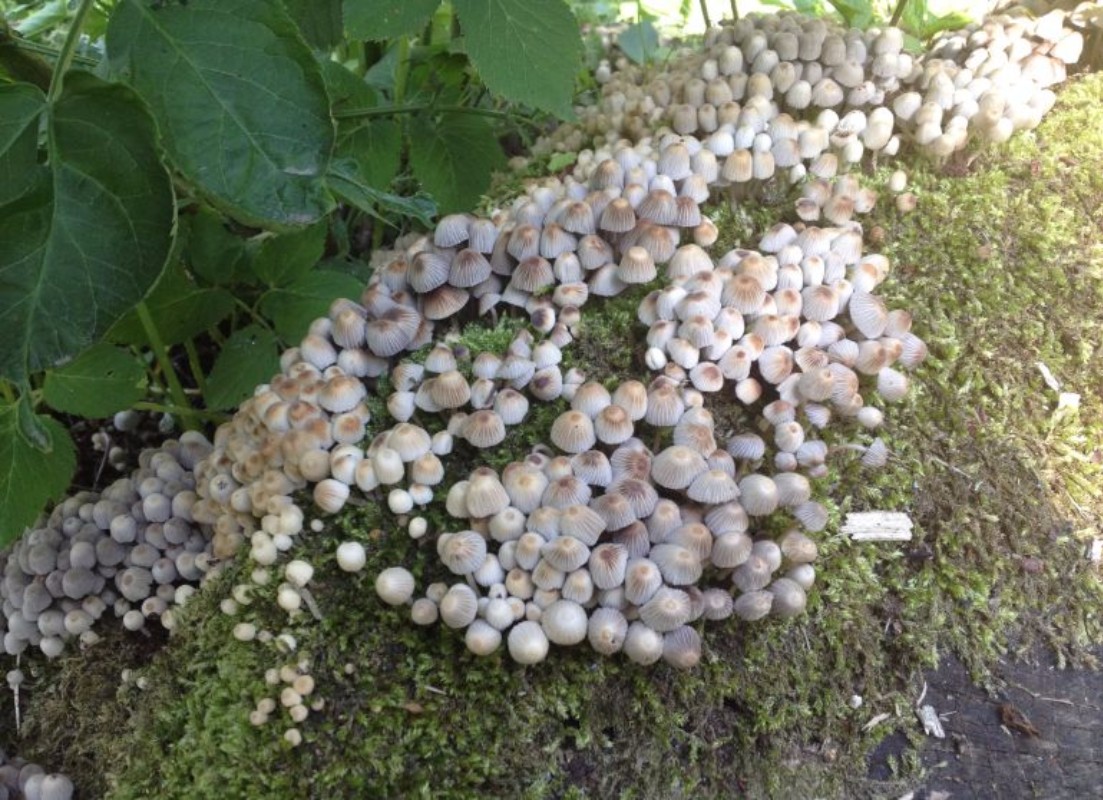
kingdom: Fungi
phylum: Basidiomycota
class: Agaricomycetes
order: Agaricales
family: Psathyrellaceae
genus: Coprinellus
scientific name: Coprinellus disseminatus
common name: bredsået blækhat
